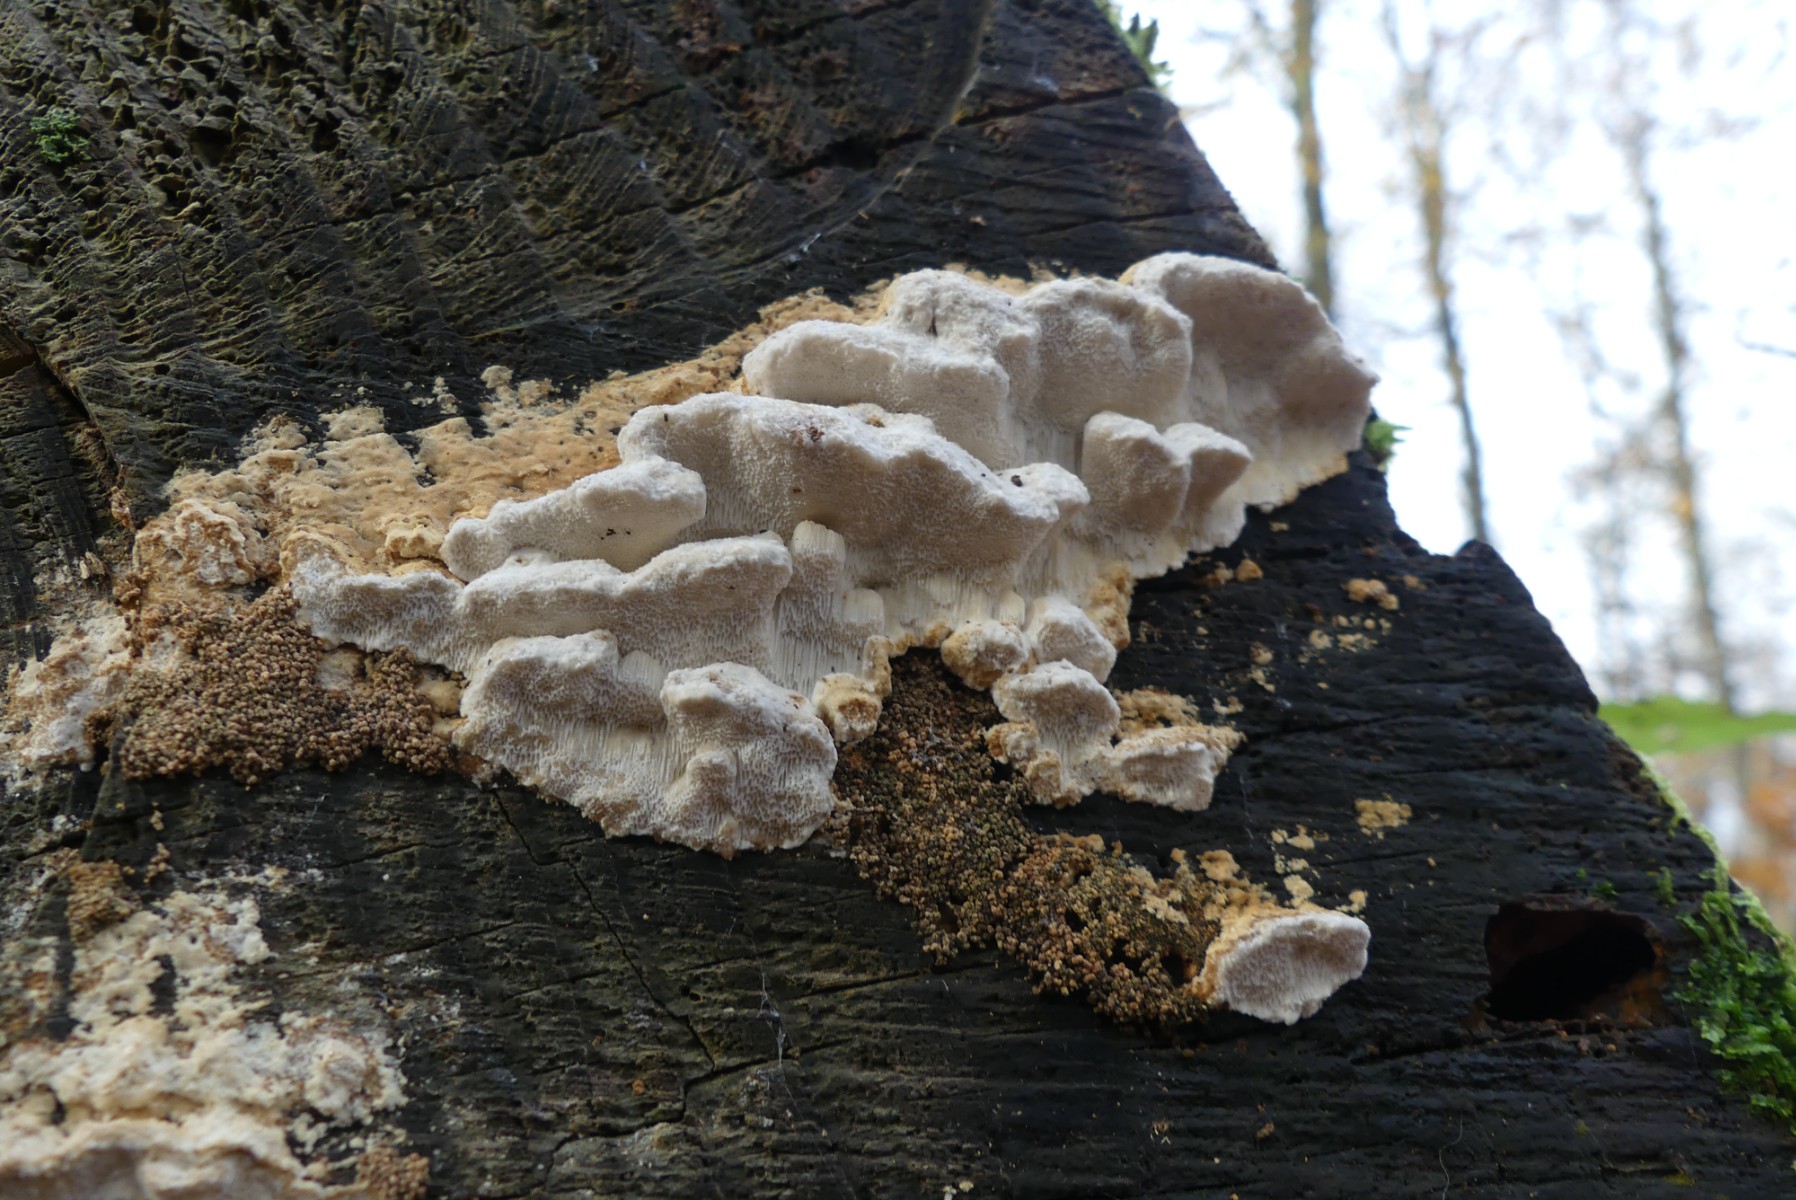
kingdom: Fungi
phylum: Basidiomycota
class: Agaricomycetes
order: Polyporales
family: Fomitopsidaceae
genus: Neoantrodia
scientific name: Neoantrodia serialis
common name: række-sejporesvamp
